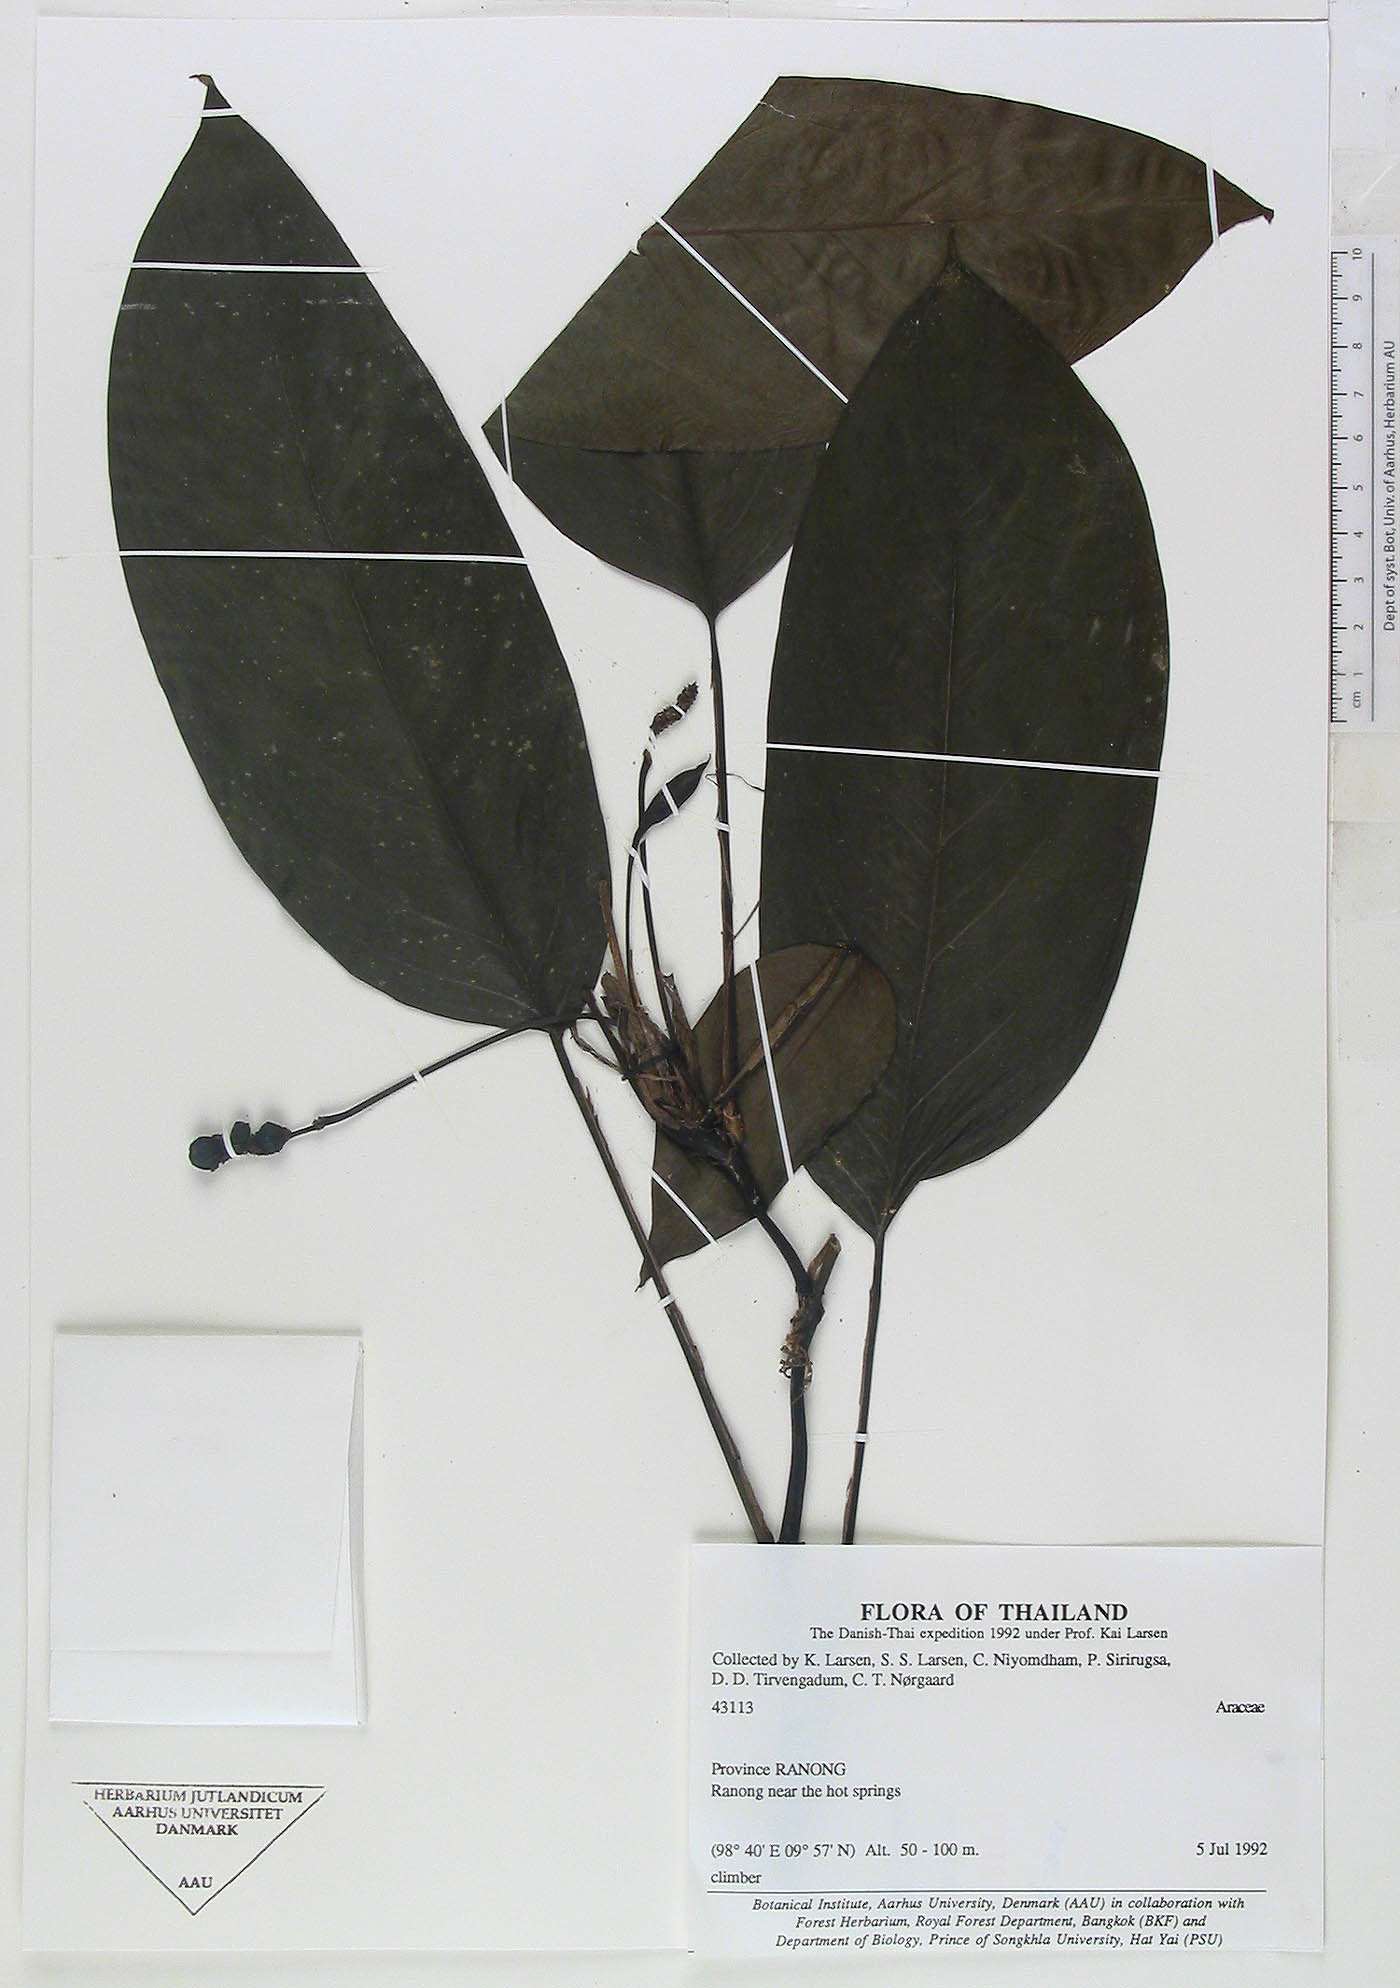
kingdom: Plantae
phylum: Tracheophyta
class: Liliopsida
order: Alismatales
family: Araceae
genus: Anadendrum
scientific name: Anadendrum marcesovaginatum
